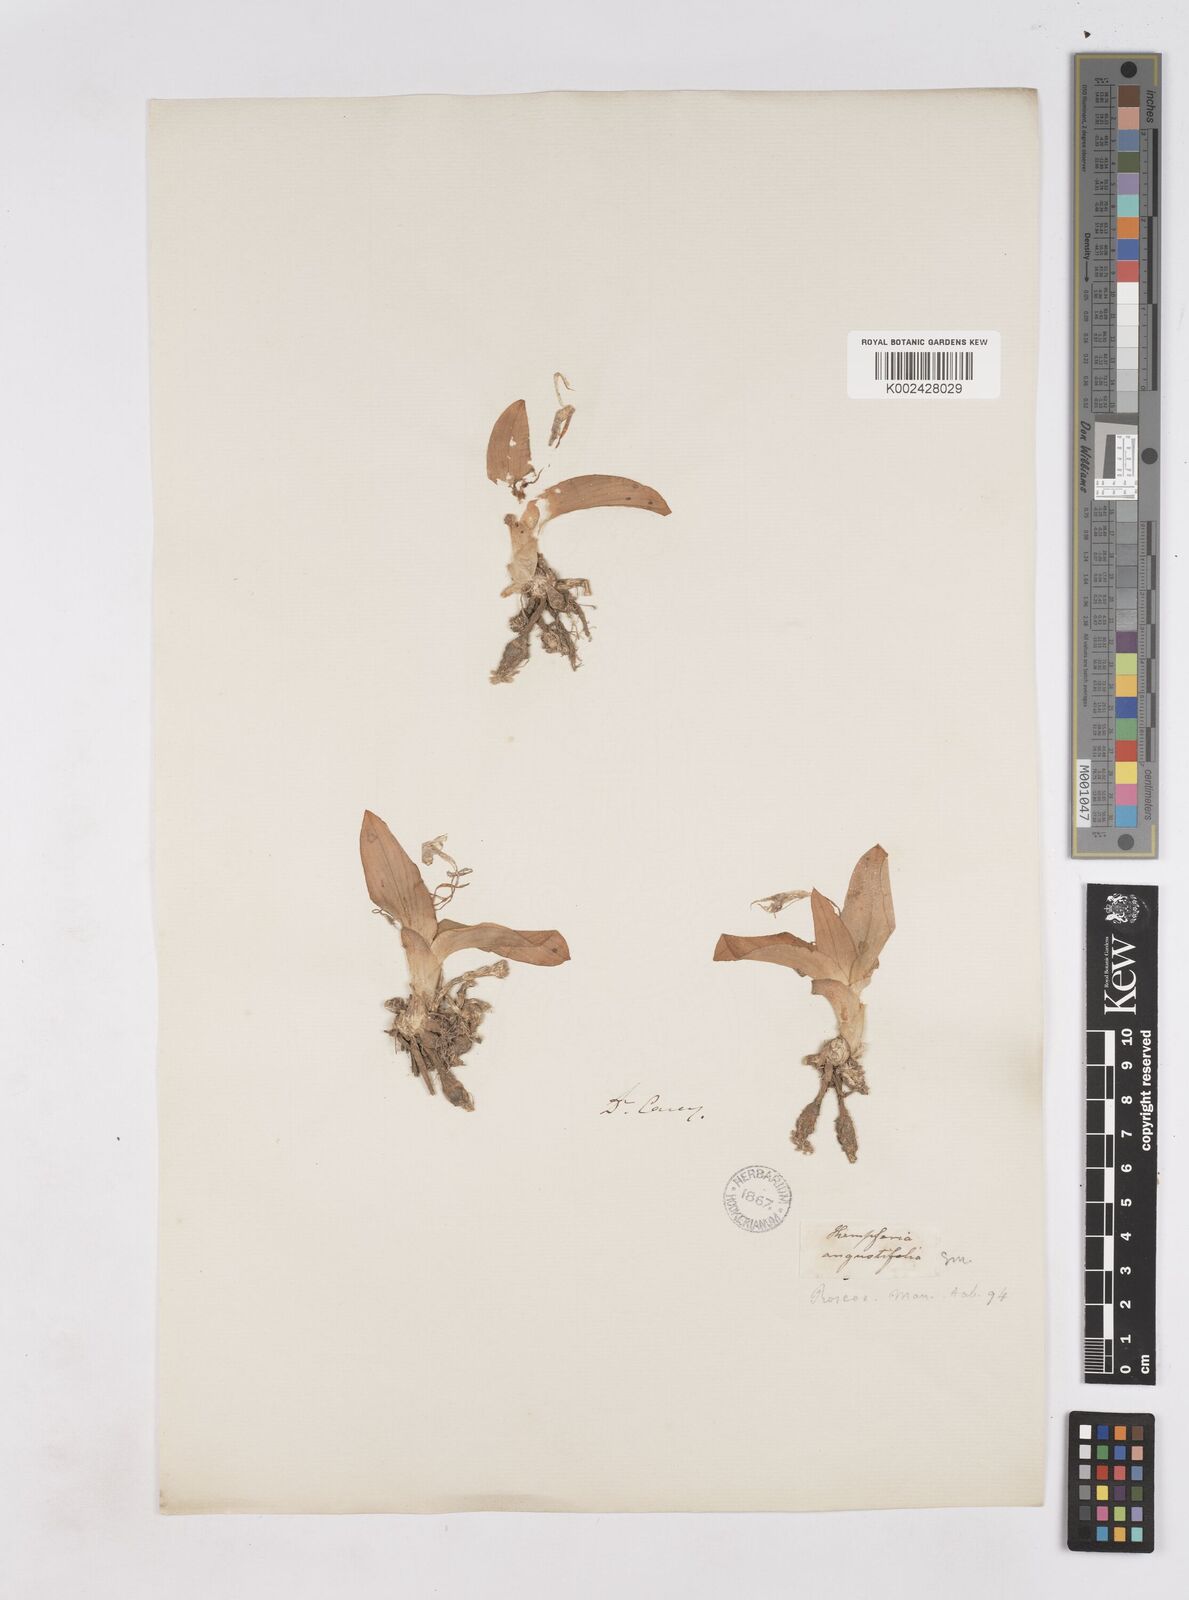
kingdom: Plantae
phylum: Tracheophyta
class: Liliopsida
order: Zingiberales
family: Zingiberaceae
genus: Kaempferia
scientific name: Kaempferia angustifolia
